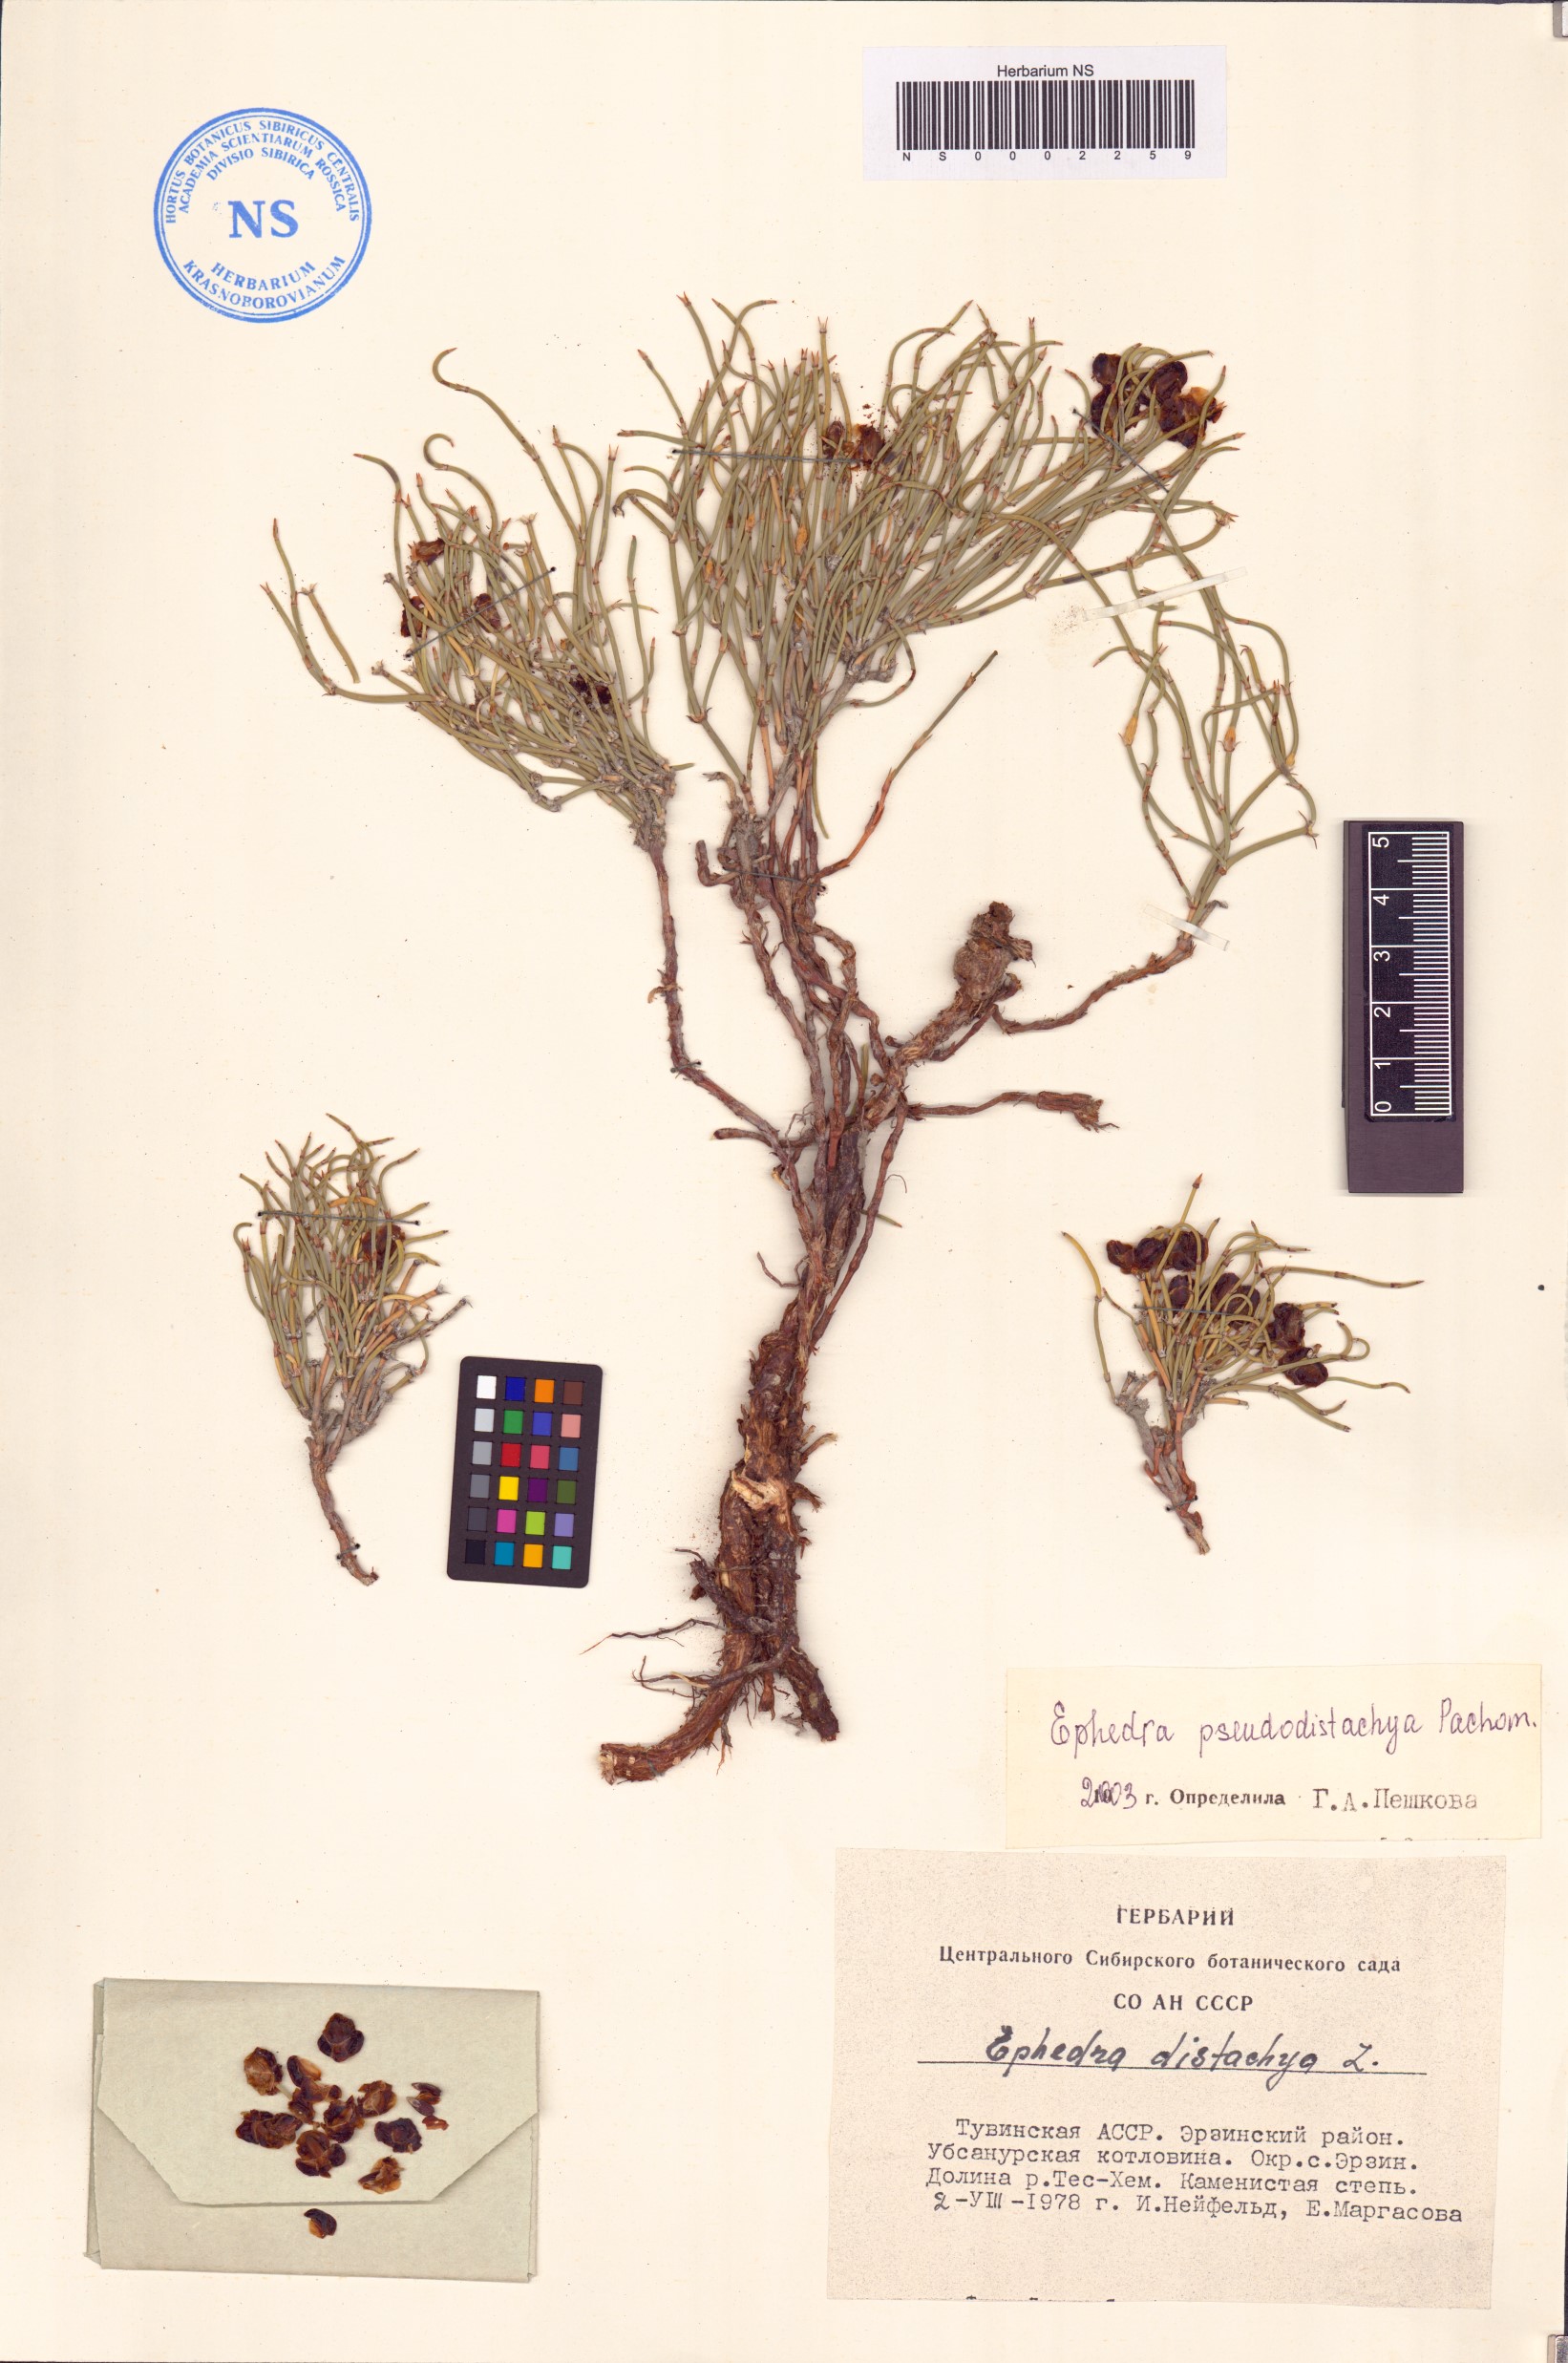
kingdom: Plantae
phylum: Tracheophyta
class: Gnetopsida
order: Ephedrales
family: Ephedraceae
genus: Ephedra
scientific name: Ephedra pseudodistachya
